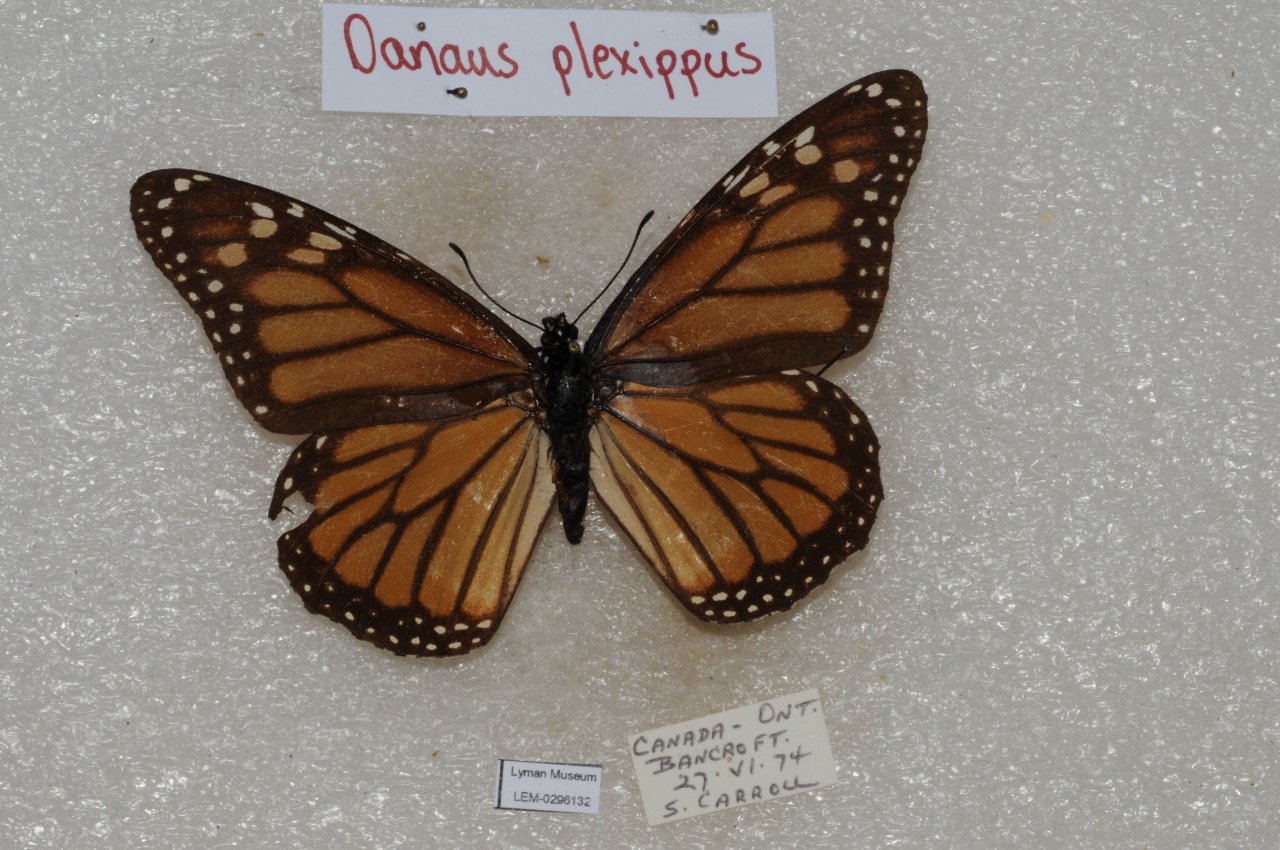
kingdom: Animalia
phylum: Arthropoda
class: Insecta
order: Lepidoptera
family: Nymphalidae
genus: Danaus
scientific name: Danaus plexippus
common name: Monarch
